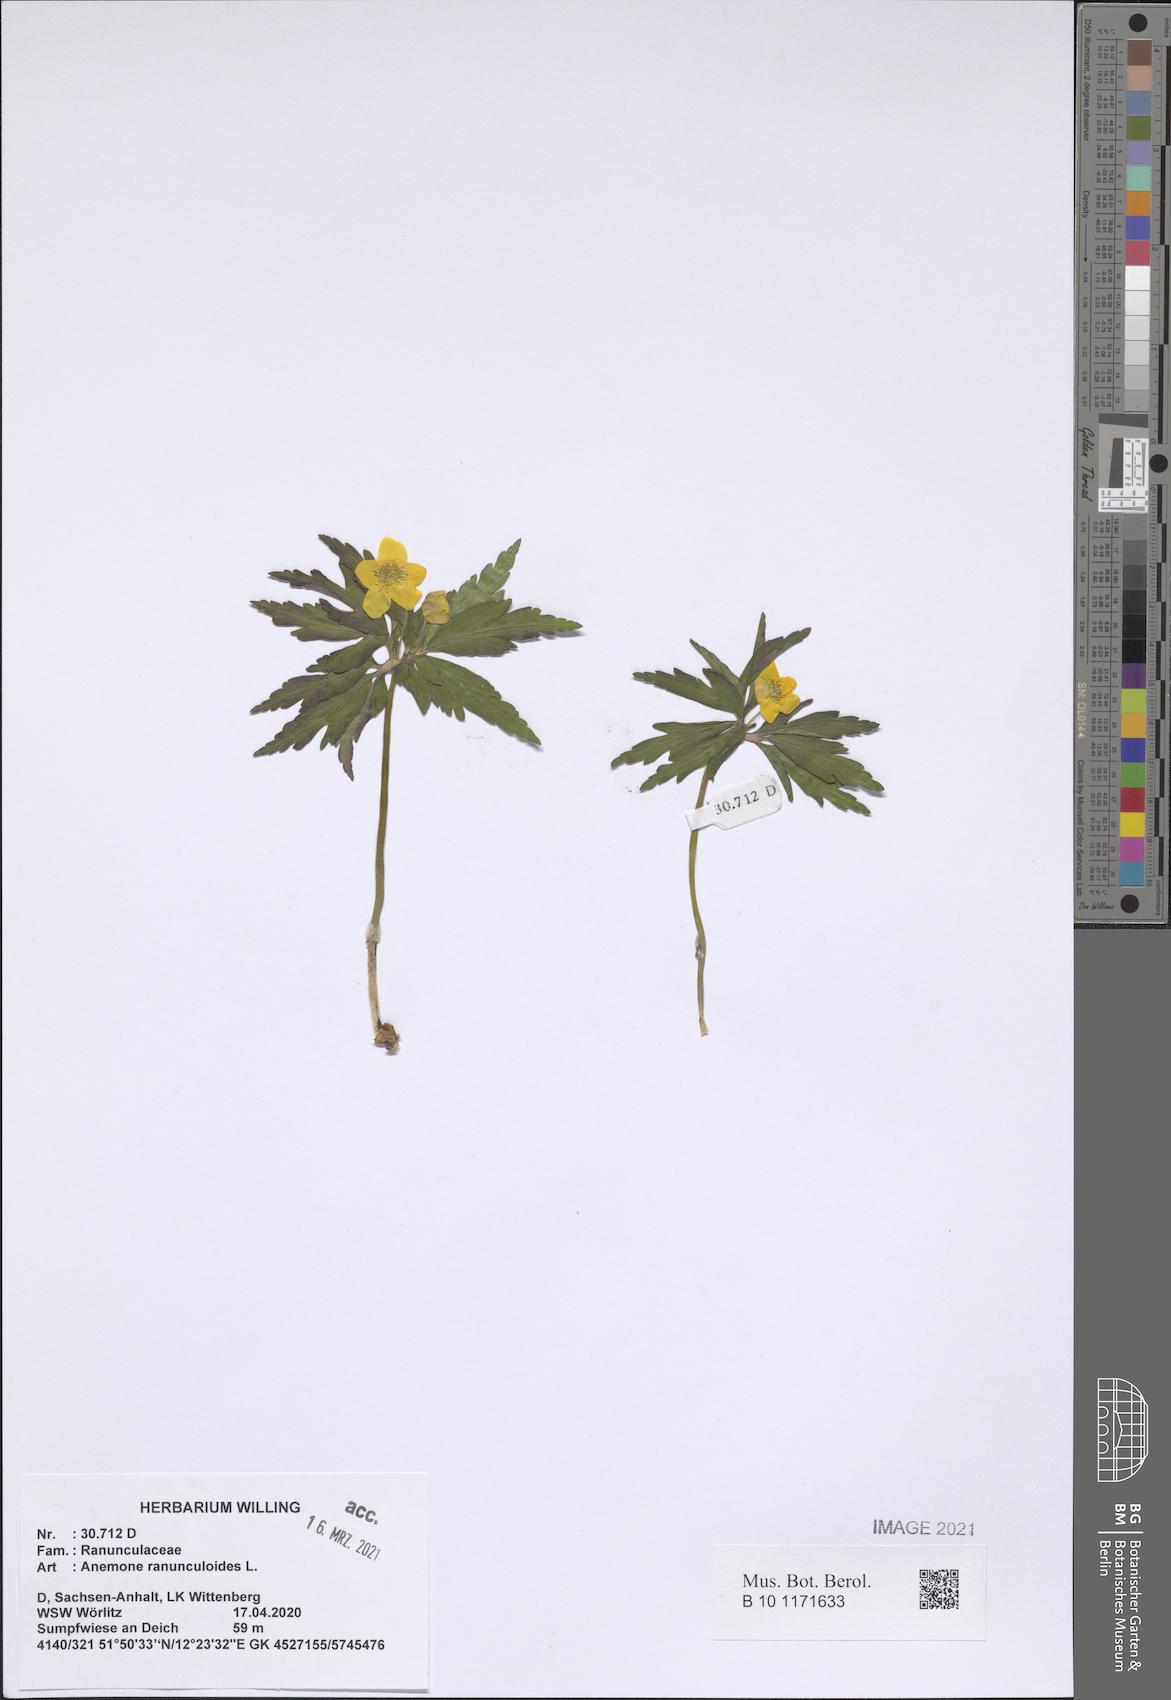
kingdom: Plantae
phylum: Tracheophyta
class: Magnoliopsida
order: Ranunculales
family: Ranunculaceae
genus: Anemone
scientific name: Anemone ranunculoides
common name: Yellow anemone
